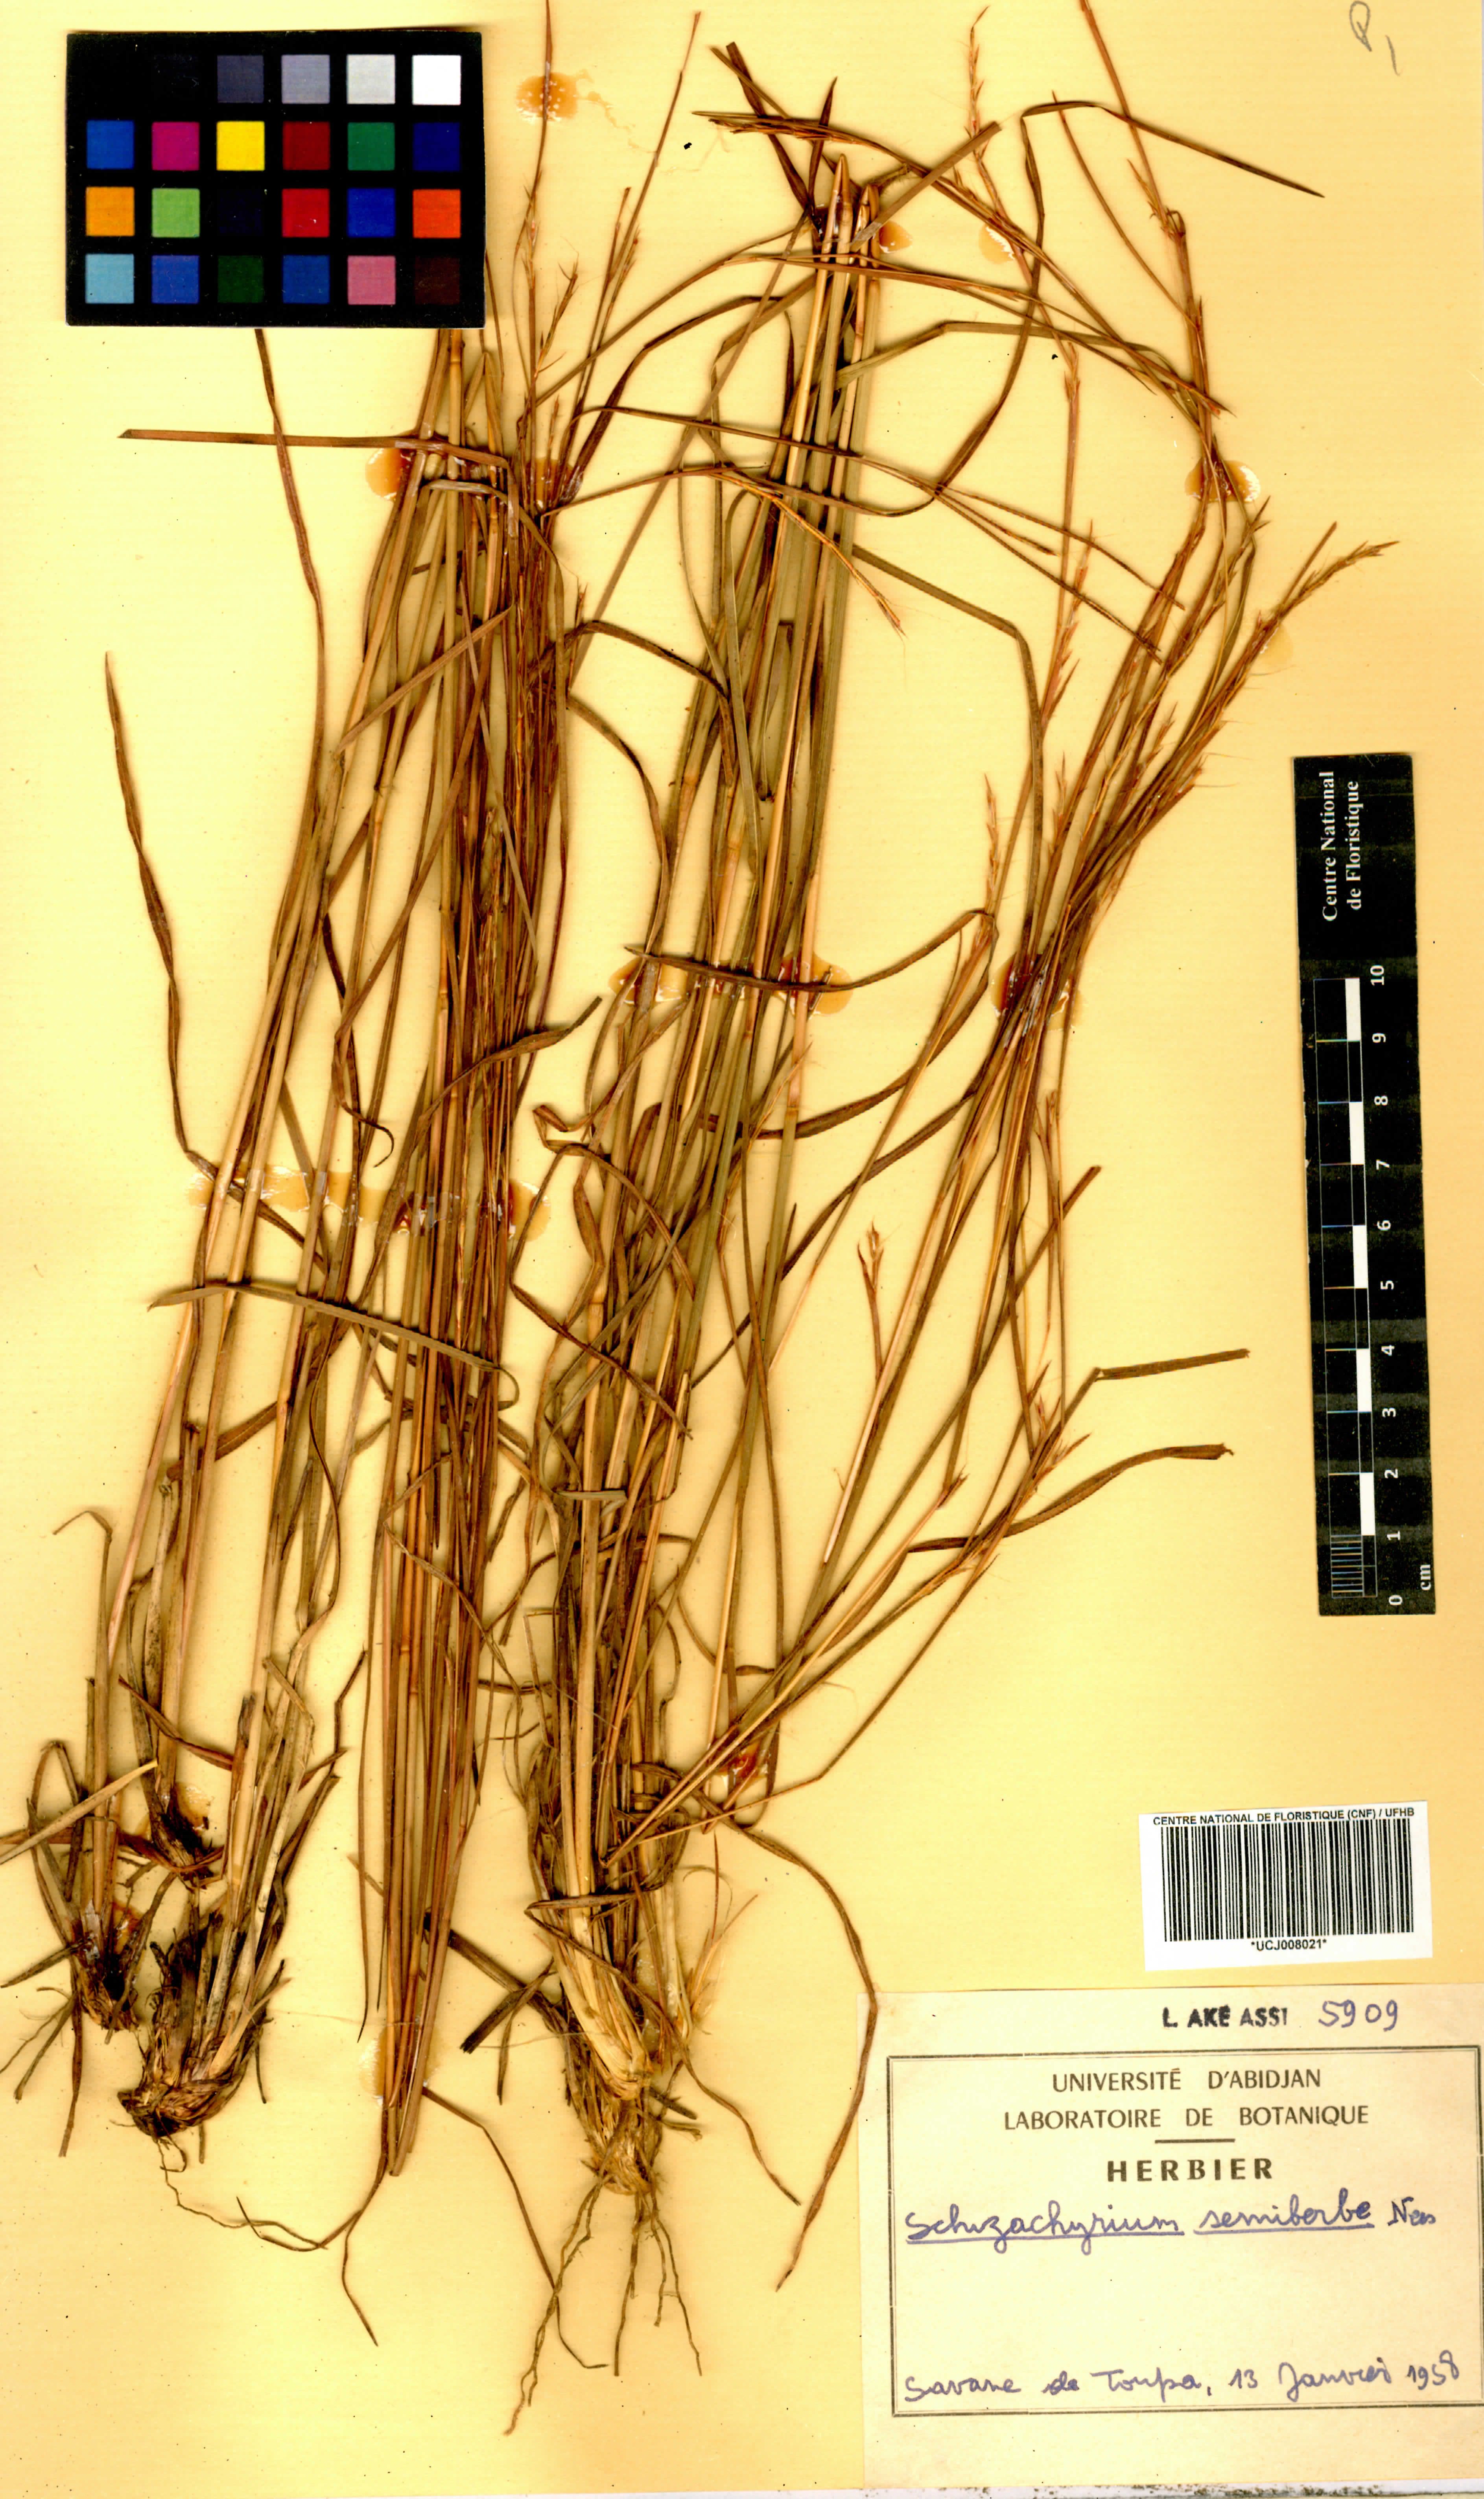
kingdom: Plantae
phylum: Tracheophyta
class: Liliopsida
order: Poales
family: Poaceae
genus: Schizachyrium
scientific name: Schizachyrium sanguineum
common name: Crimson bluestem
